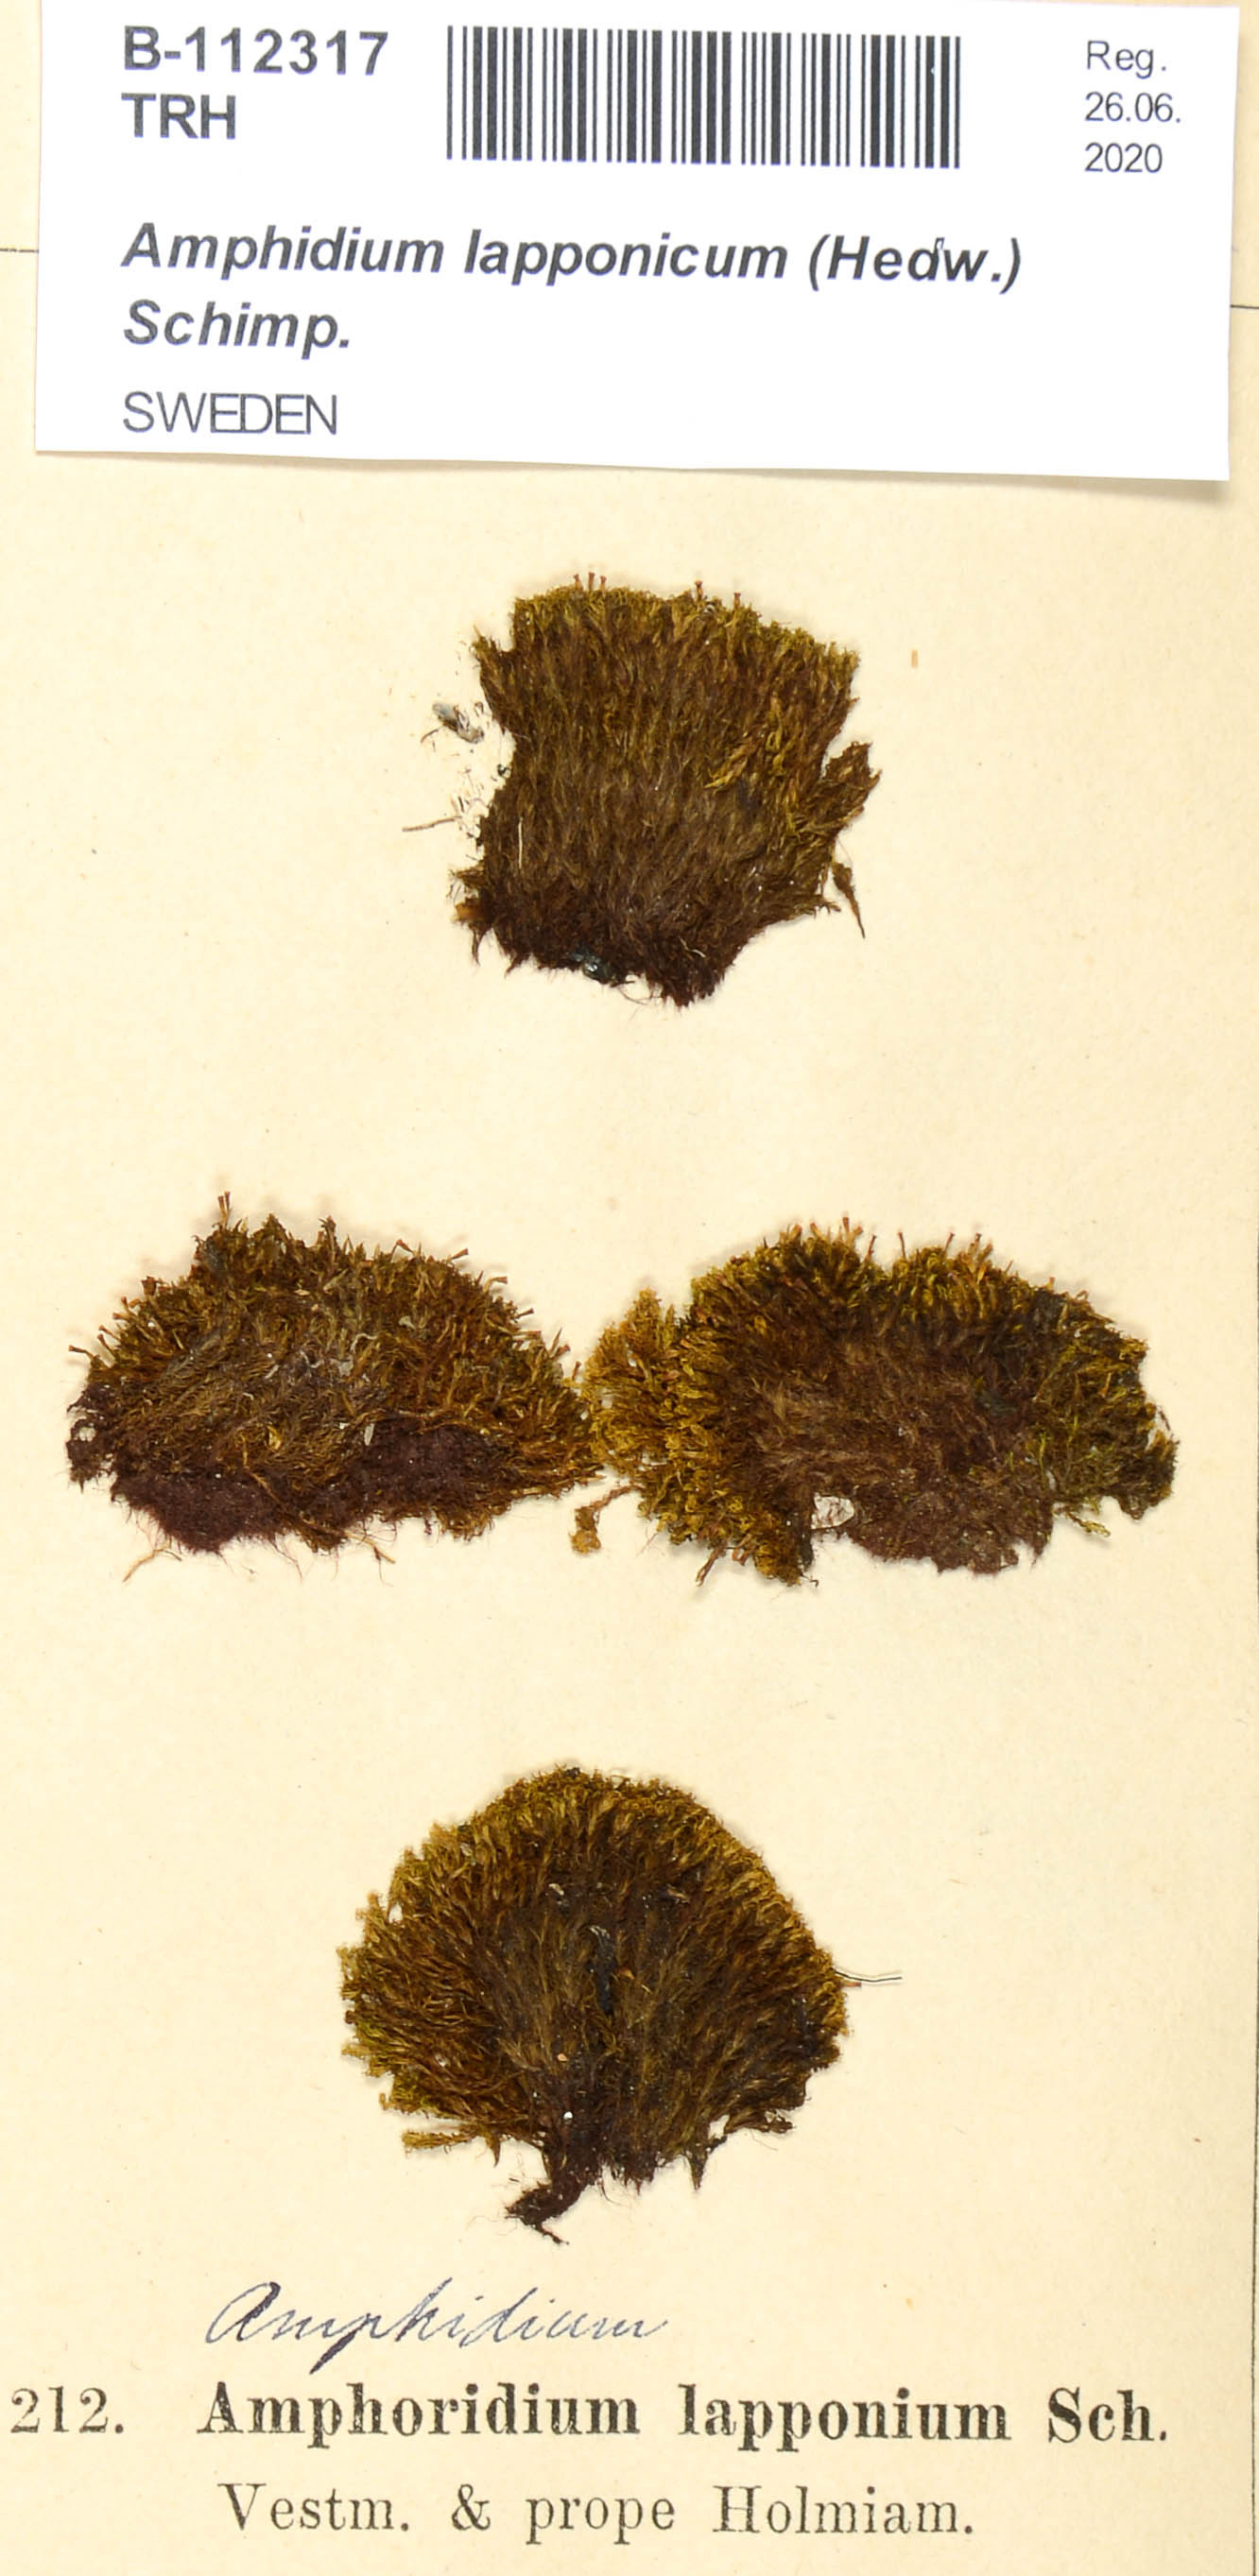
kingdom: Plantae
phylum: Bryophyta
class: Bryopsida
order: Dicranales
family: Amphidiaceae
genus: Amphidium
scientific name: Amphidium lapponicum
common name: Lapland yoke moss
